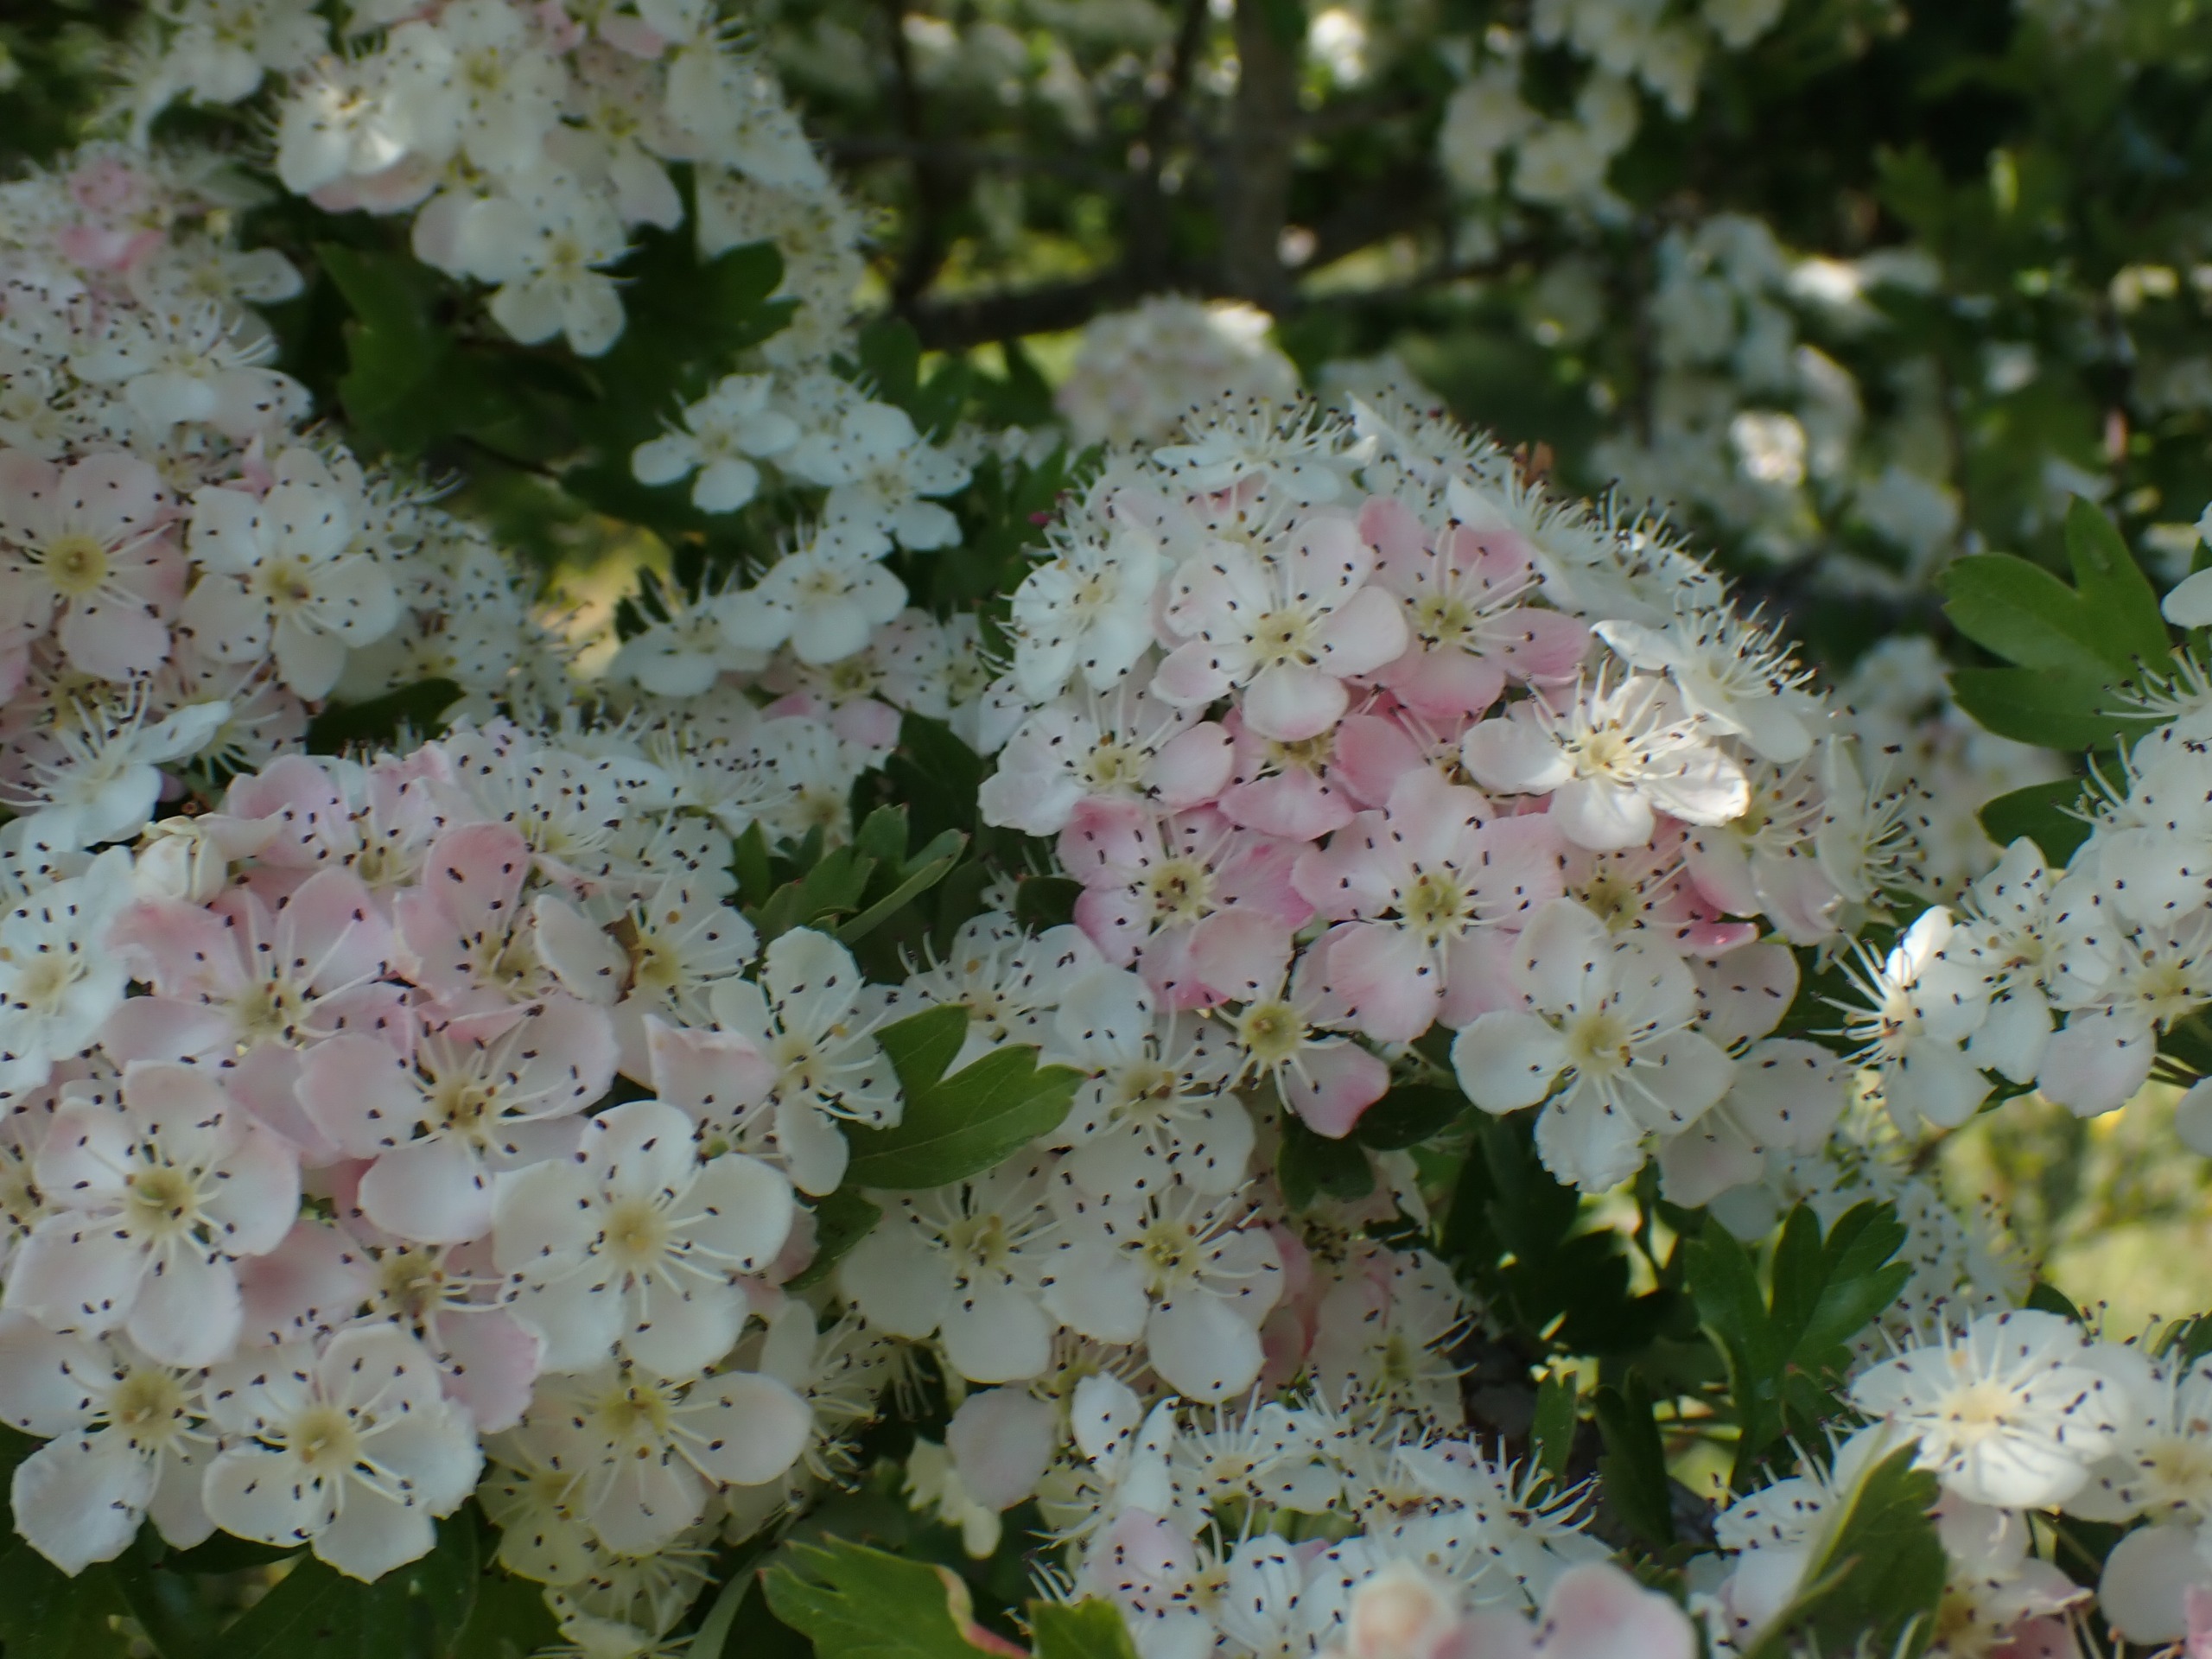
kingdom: Plantae
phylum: Tracheophyta
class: Magnoliopsida
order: Rosales
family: Rosaceae
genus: Crataegus
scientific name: Crataegus monogyna
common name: Engriflet hvidtjørn
